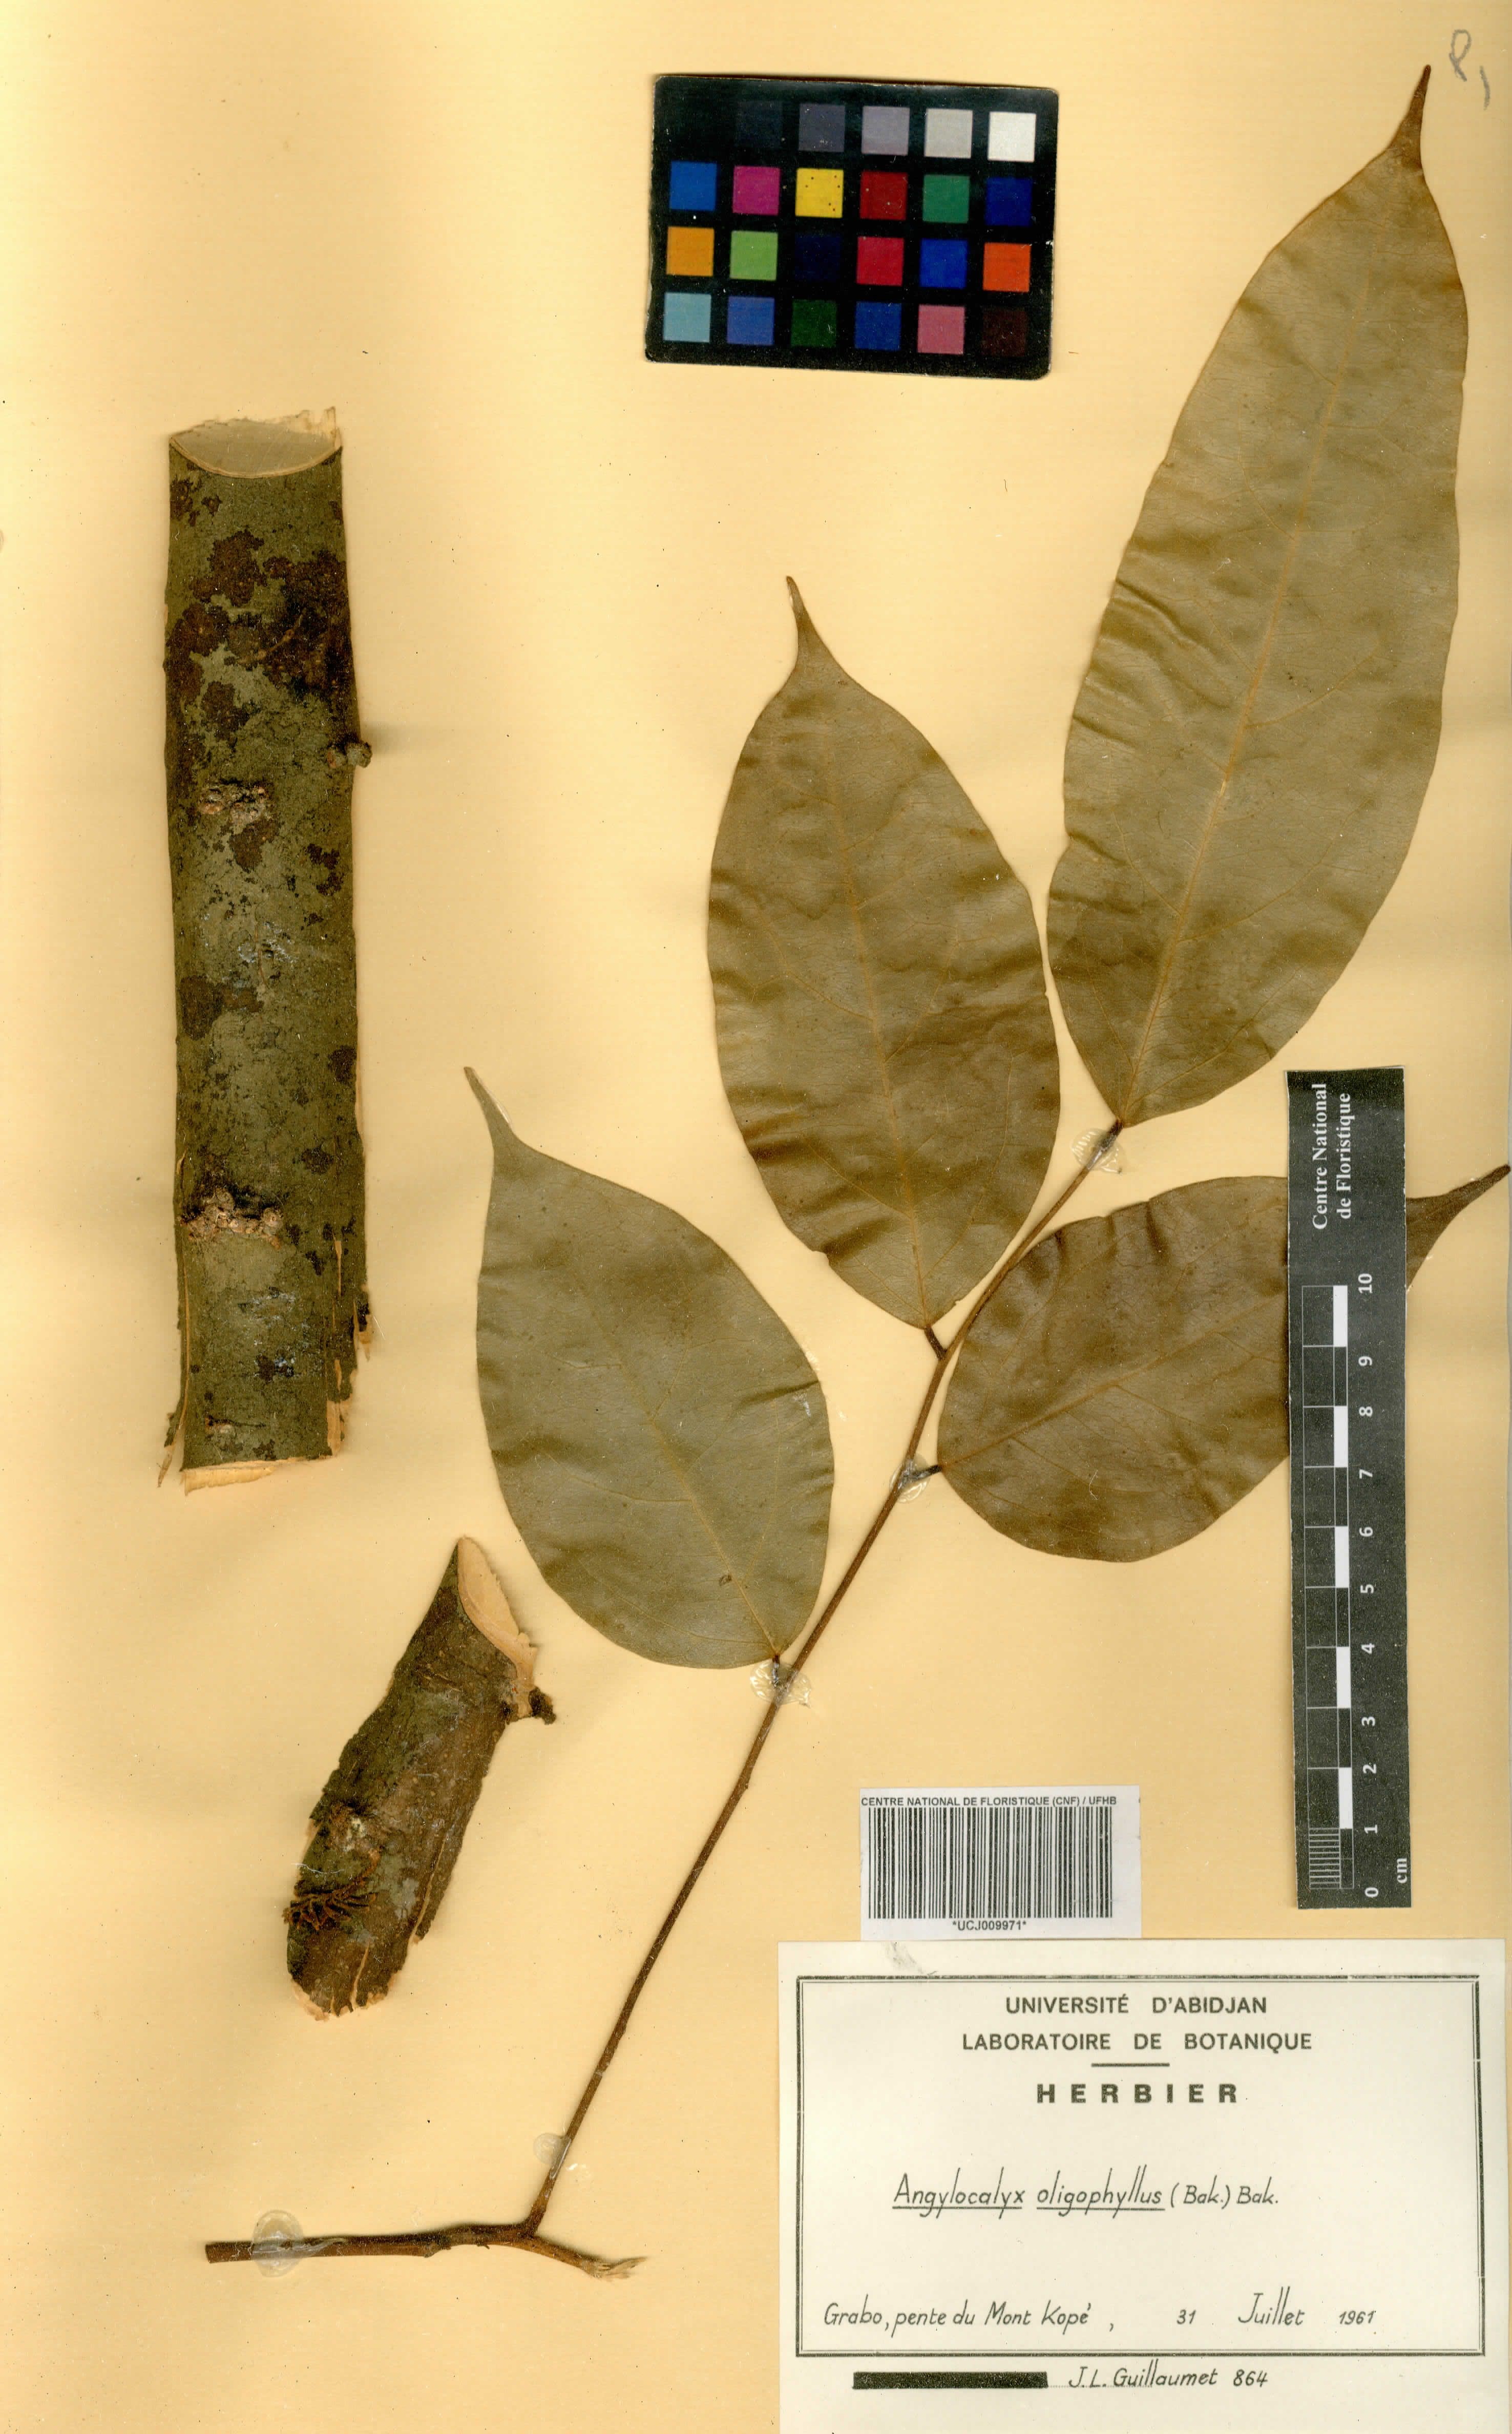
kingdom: Plantae
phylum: Tracheophyta
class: Magnoliopsida
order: Fabales
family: Fabaceae
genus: Angylocalyx
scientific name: Angylocalyx oligophyllus
